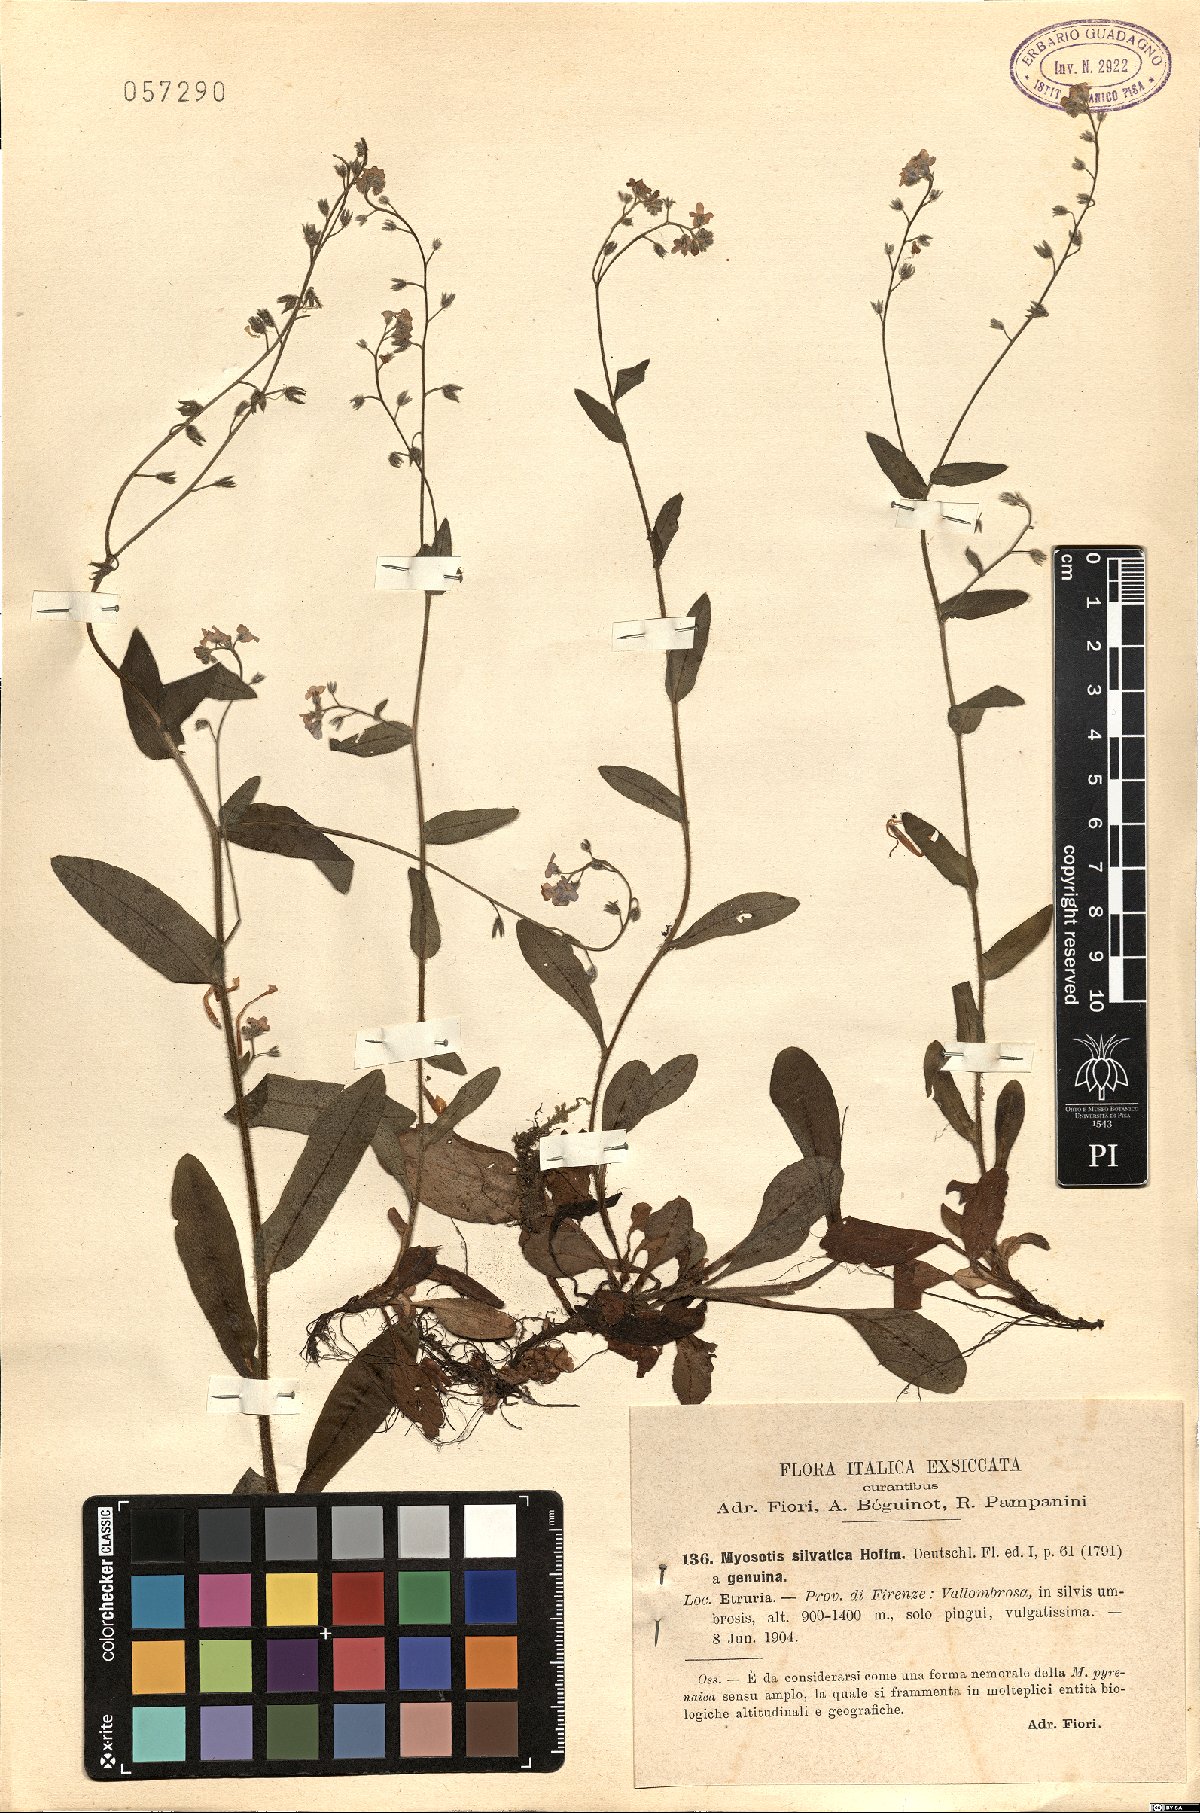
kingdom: Plantae
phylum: Tracheophyta
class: Magnoliopsida
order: Boraginales
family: Boraginaceae
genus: Myosotis
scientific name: Myosotis sylvatica
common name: Wood forget-me-not
